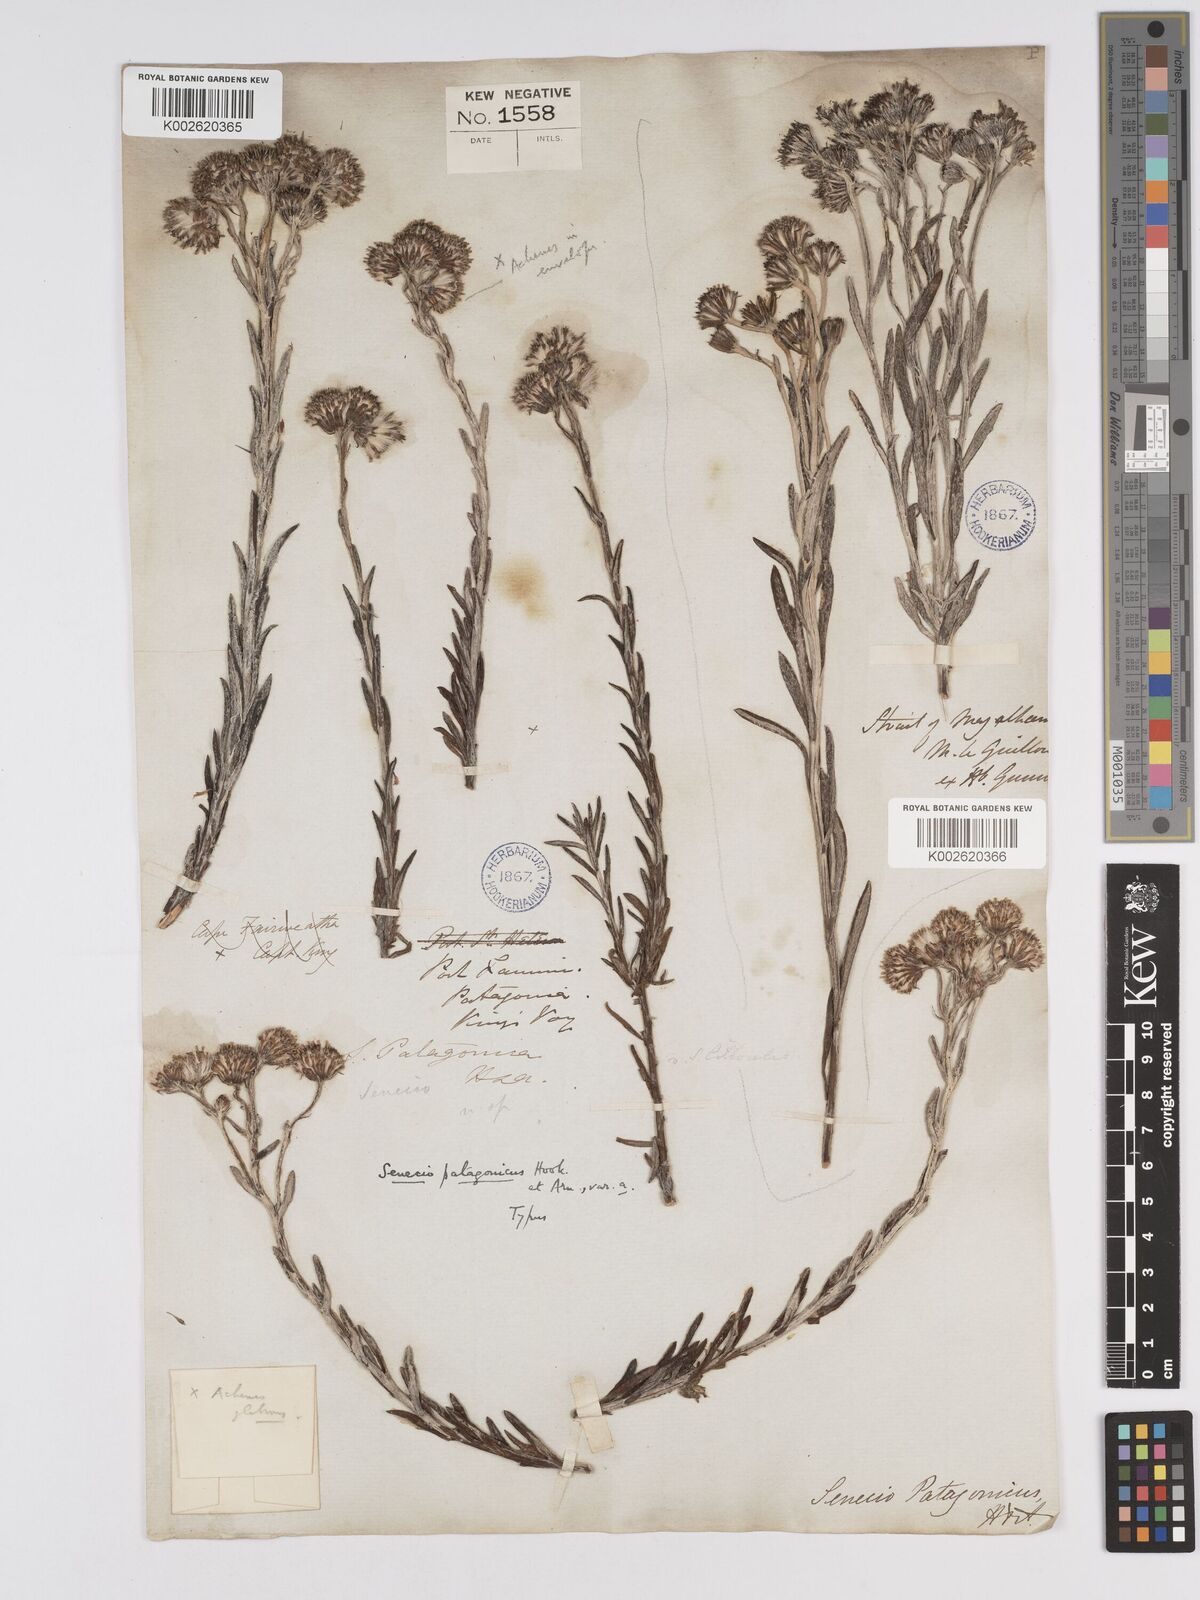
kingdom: Plantae
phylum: Tracheophyta
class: Magnoliopsida
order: Asterales
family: Asteraceae
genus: Senecio
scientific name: Senecio patagonicus
